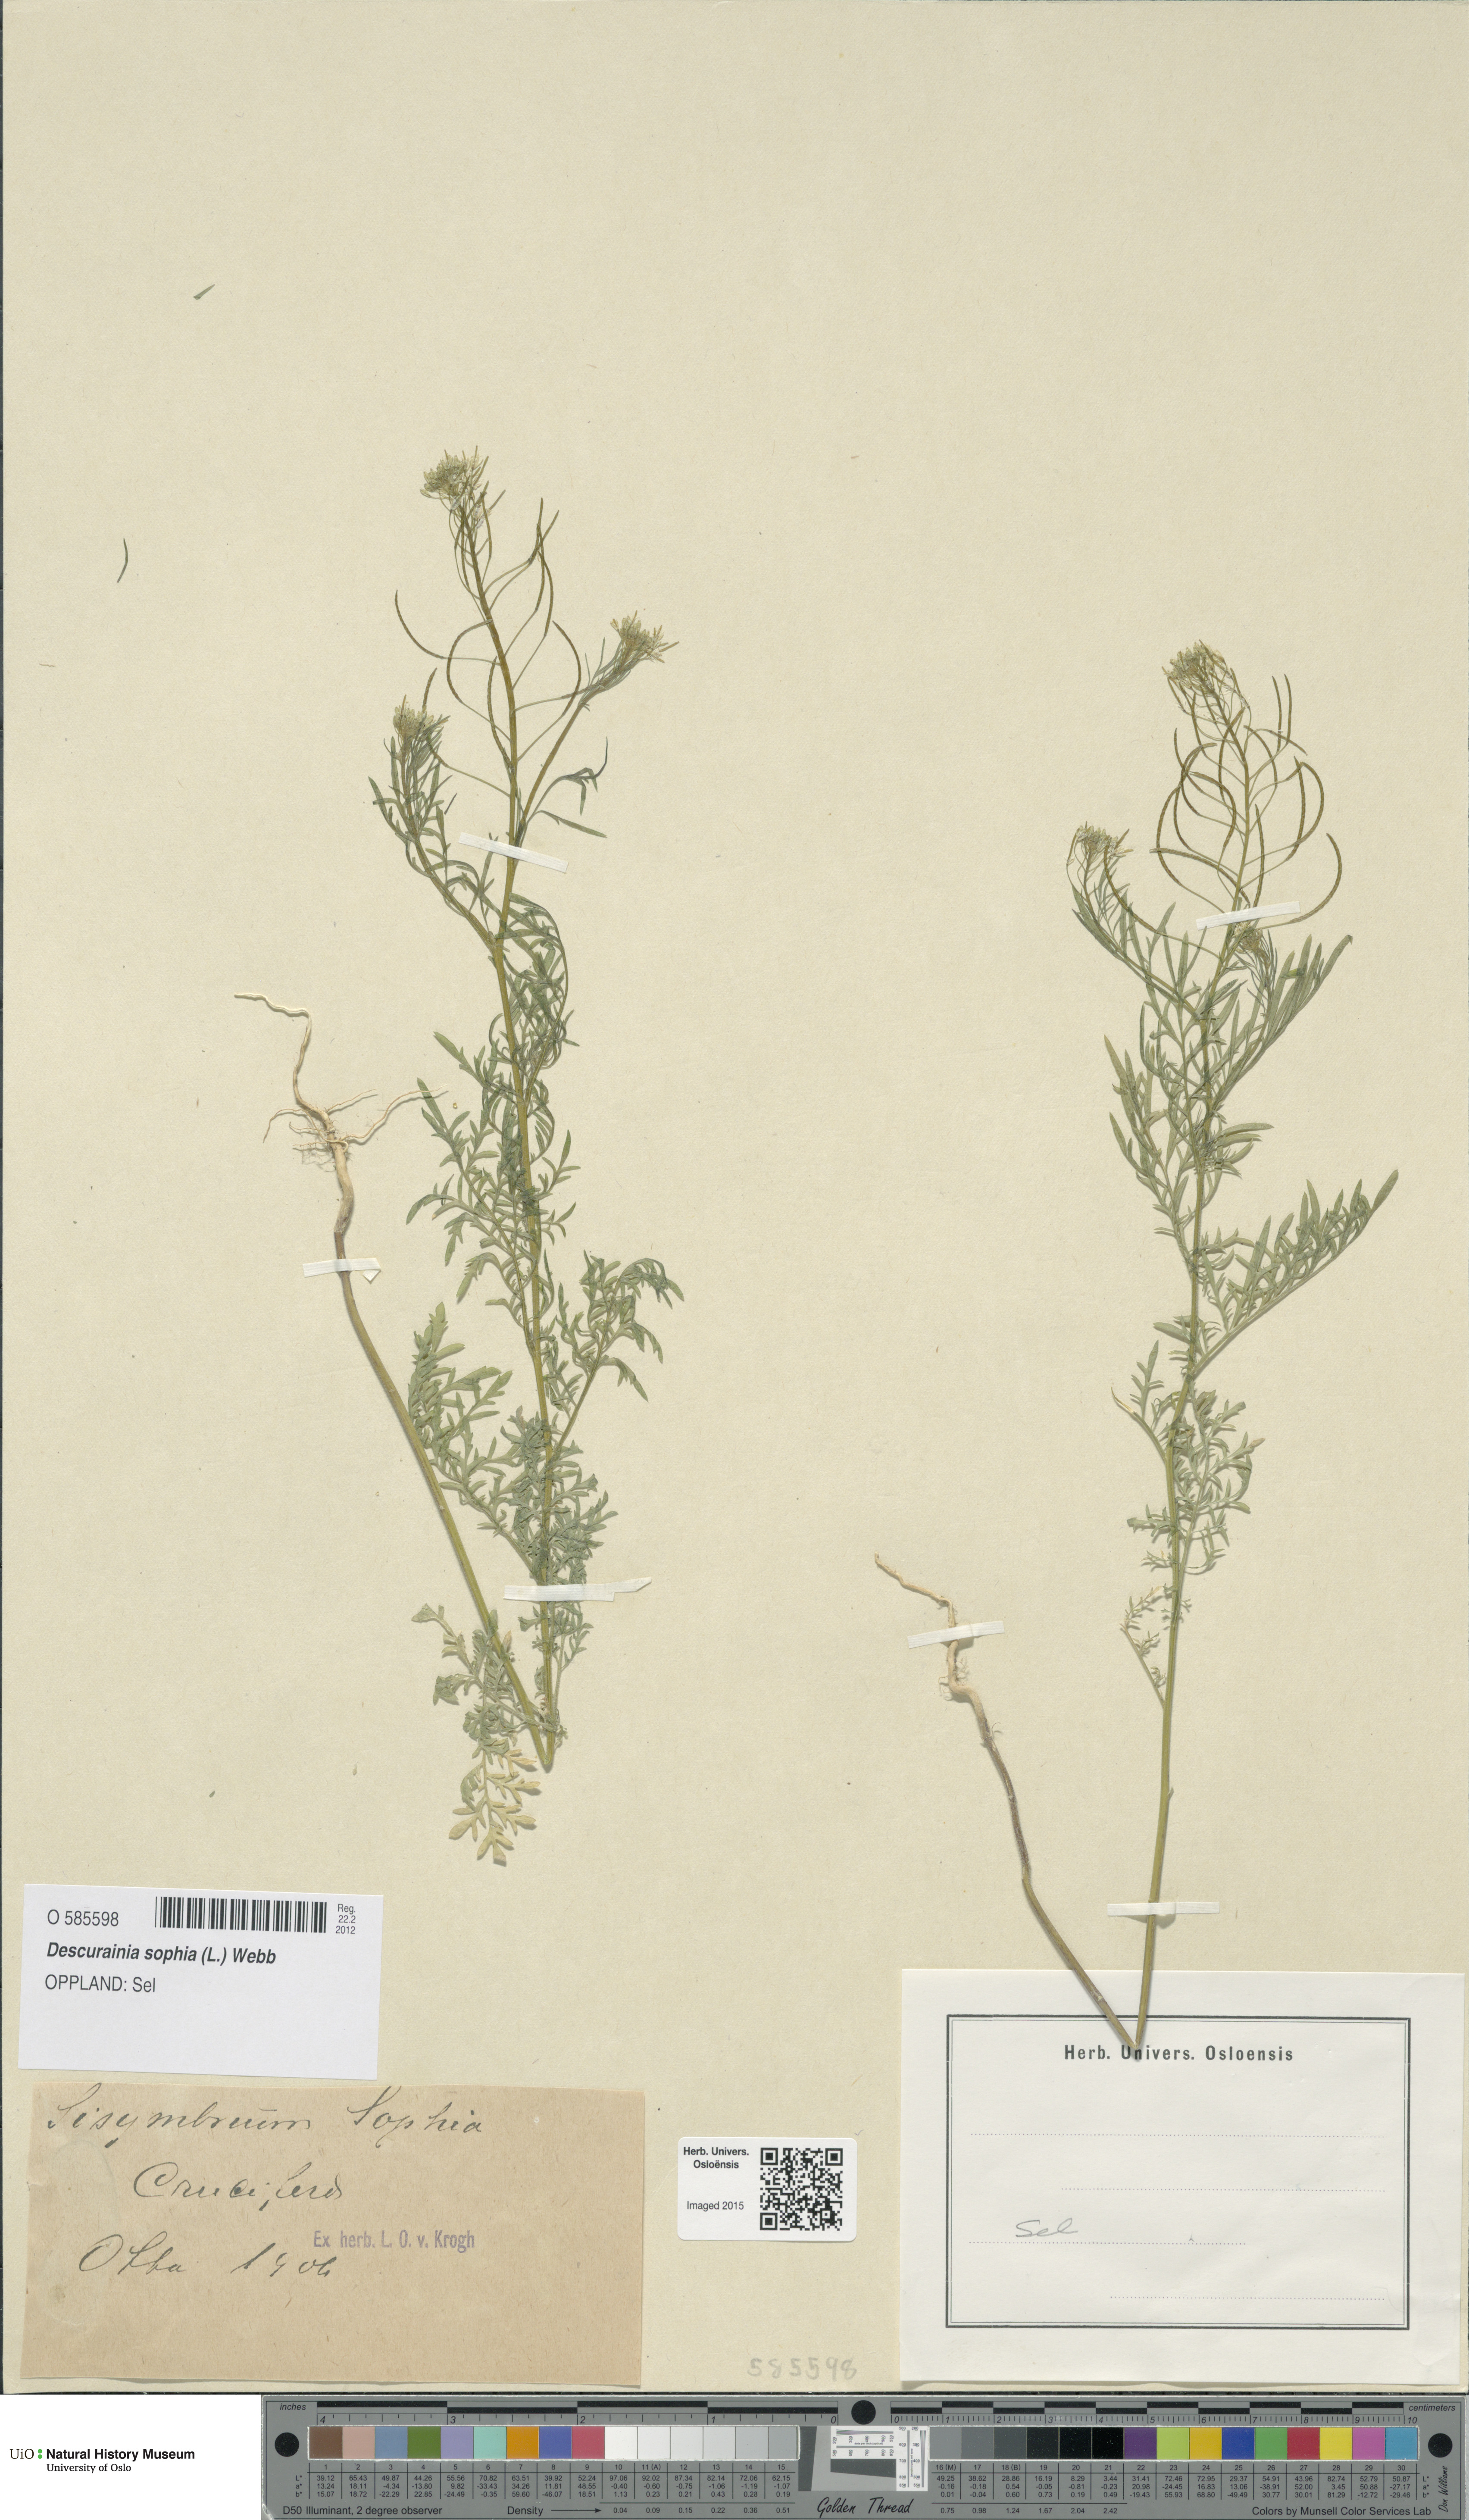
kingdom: Plantae
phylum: Tracheophyta
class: Magnoliopsida
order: Brassicales
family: Brassicaceae
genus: Descurainia
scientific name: Descurainia sophia
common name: Flixweed
